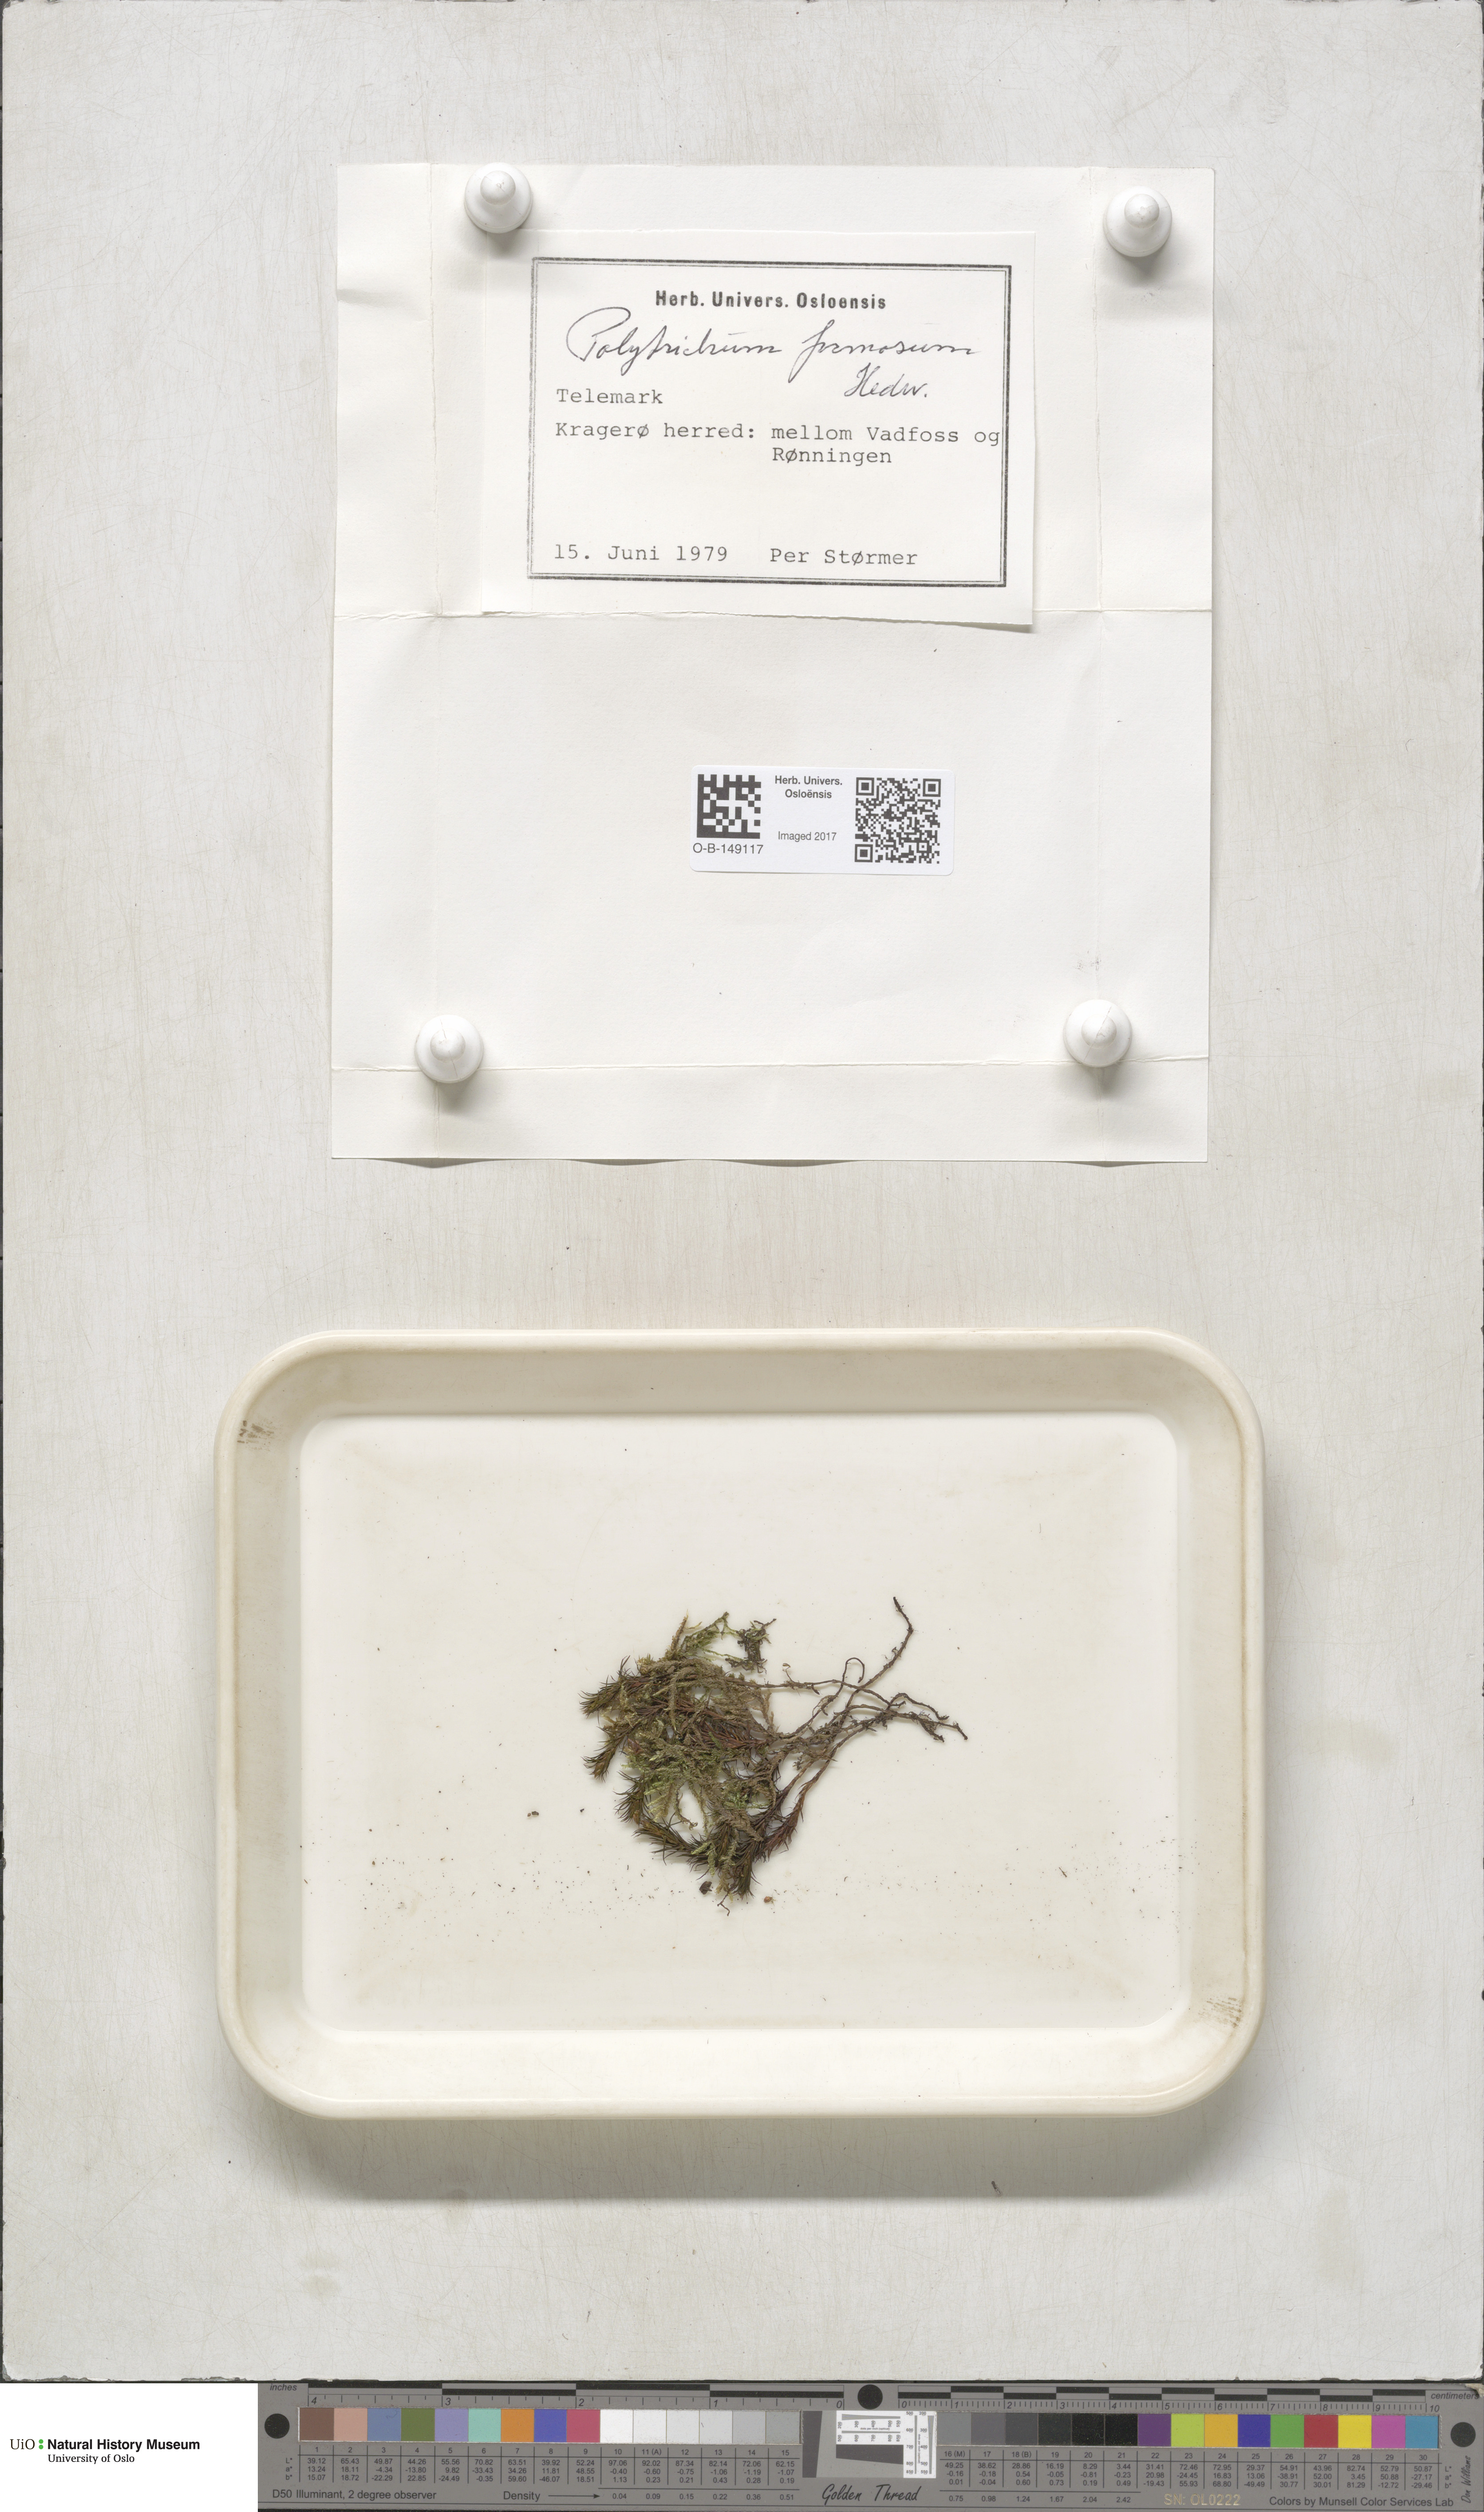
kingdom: Plantae
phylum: Bryophyta
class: Polytrichopsida
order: Polytrichales
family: Polytrichaceae
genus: Polytrichum
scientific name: Polytrichum formosum
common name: Bank haircap moss
